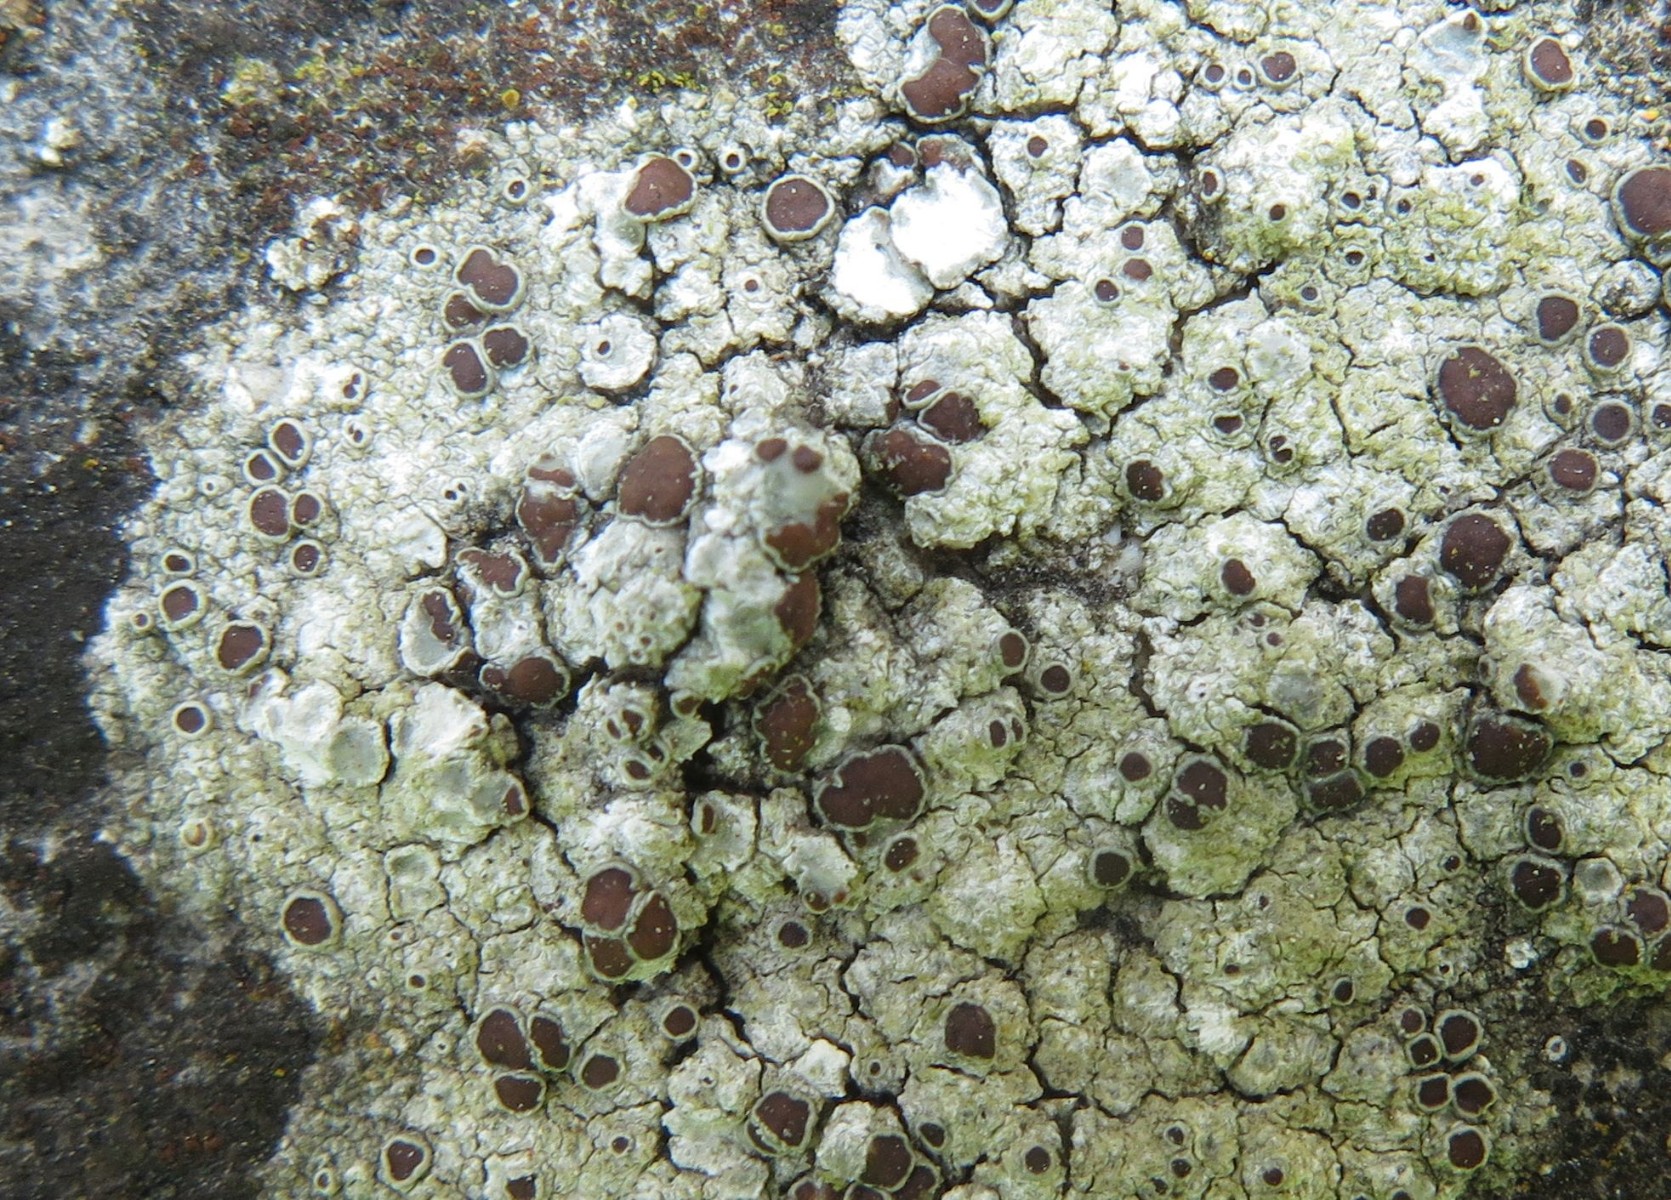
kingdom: Fungi
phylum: Ascomycota
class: Lecanoromycetes
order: Lecanorales
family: Lecanoraceae
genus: Lecanora
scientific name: Lecanora campestris
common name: mur-kantskivelav
